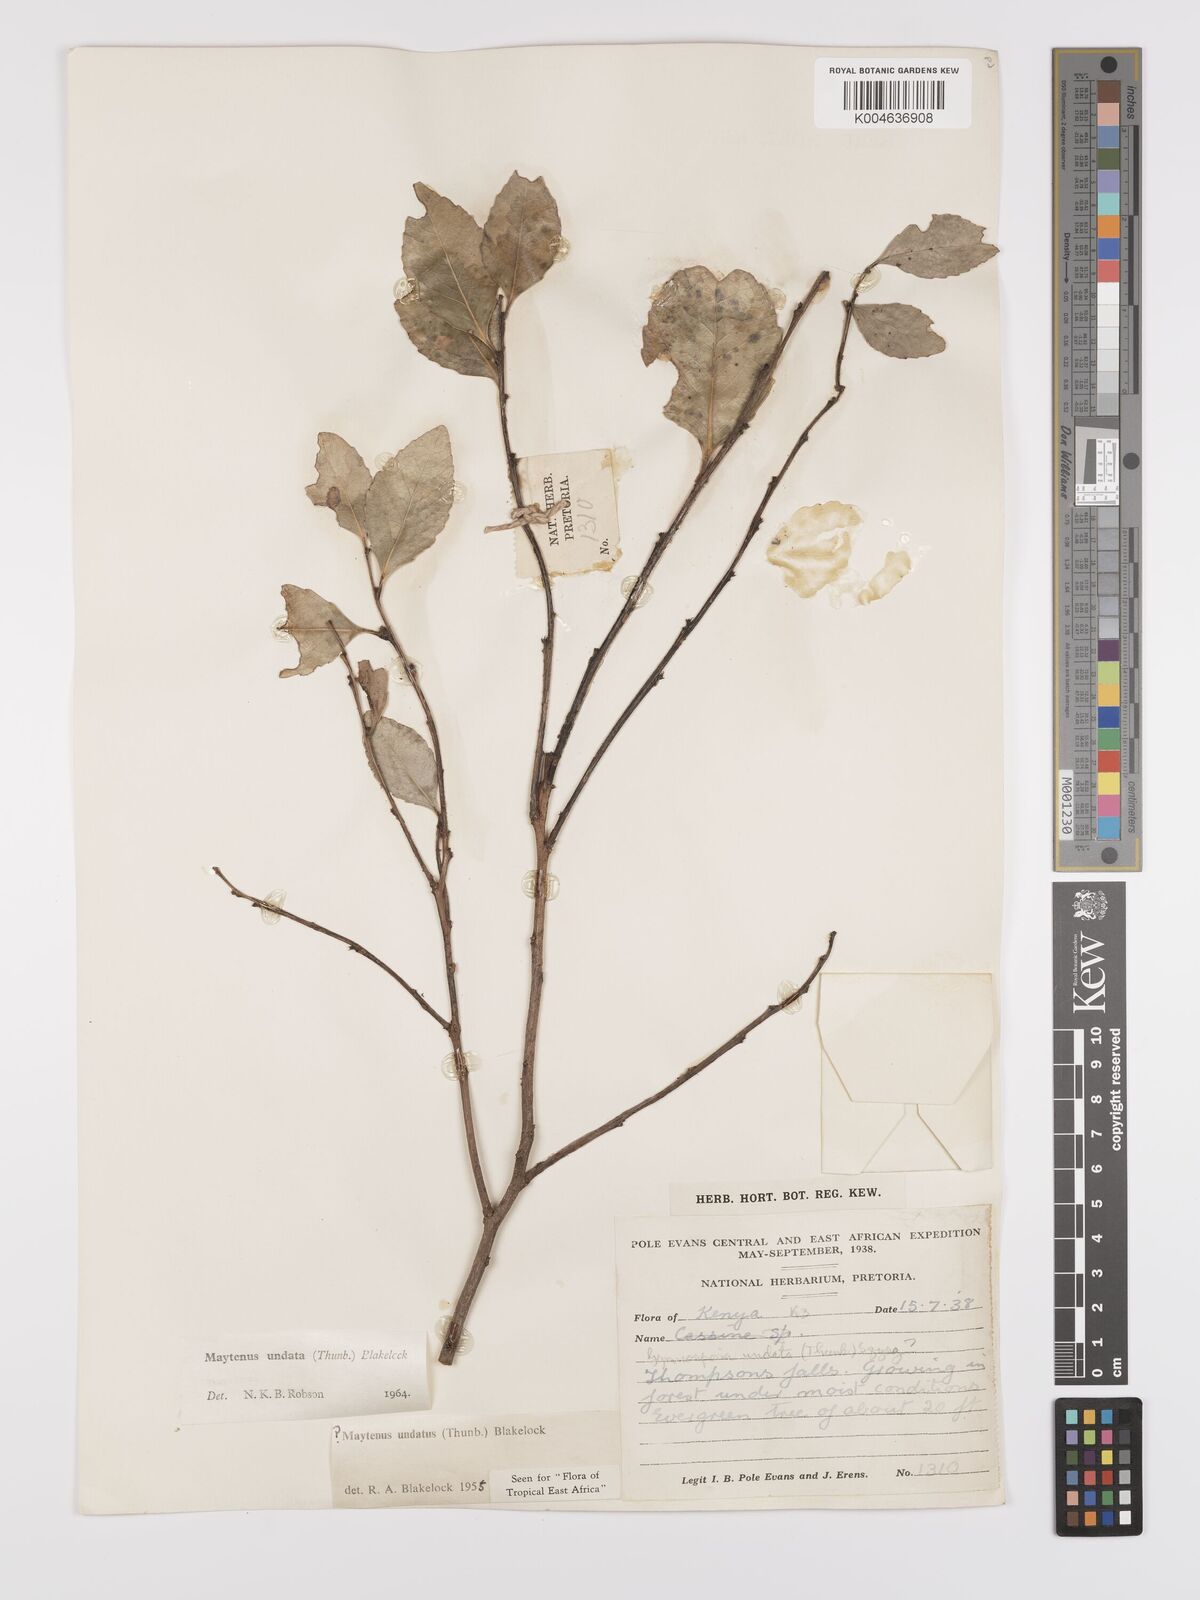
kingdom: Plantae
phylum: Tracheophyta
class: Magnoliopsida
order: Celastrales
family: Celastraceae
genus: Gymnosporia
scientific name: Gymnosporia undata
